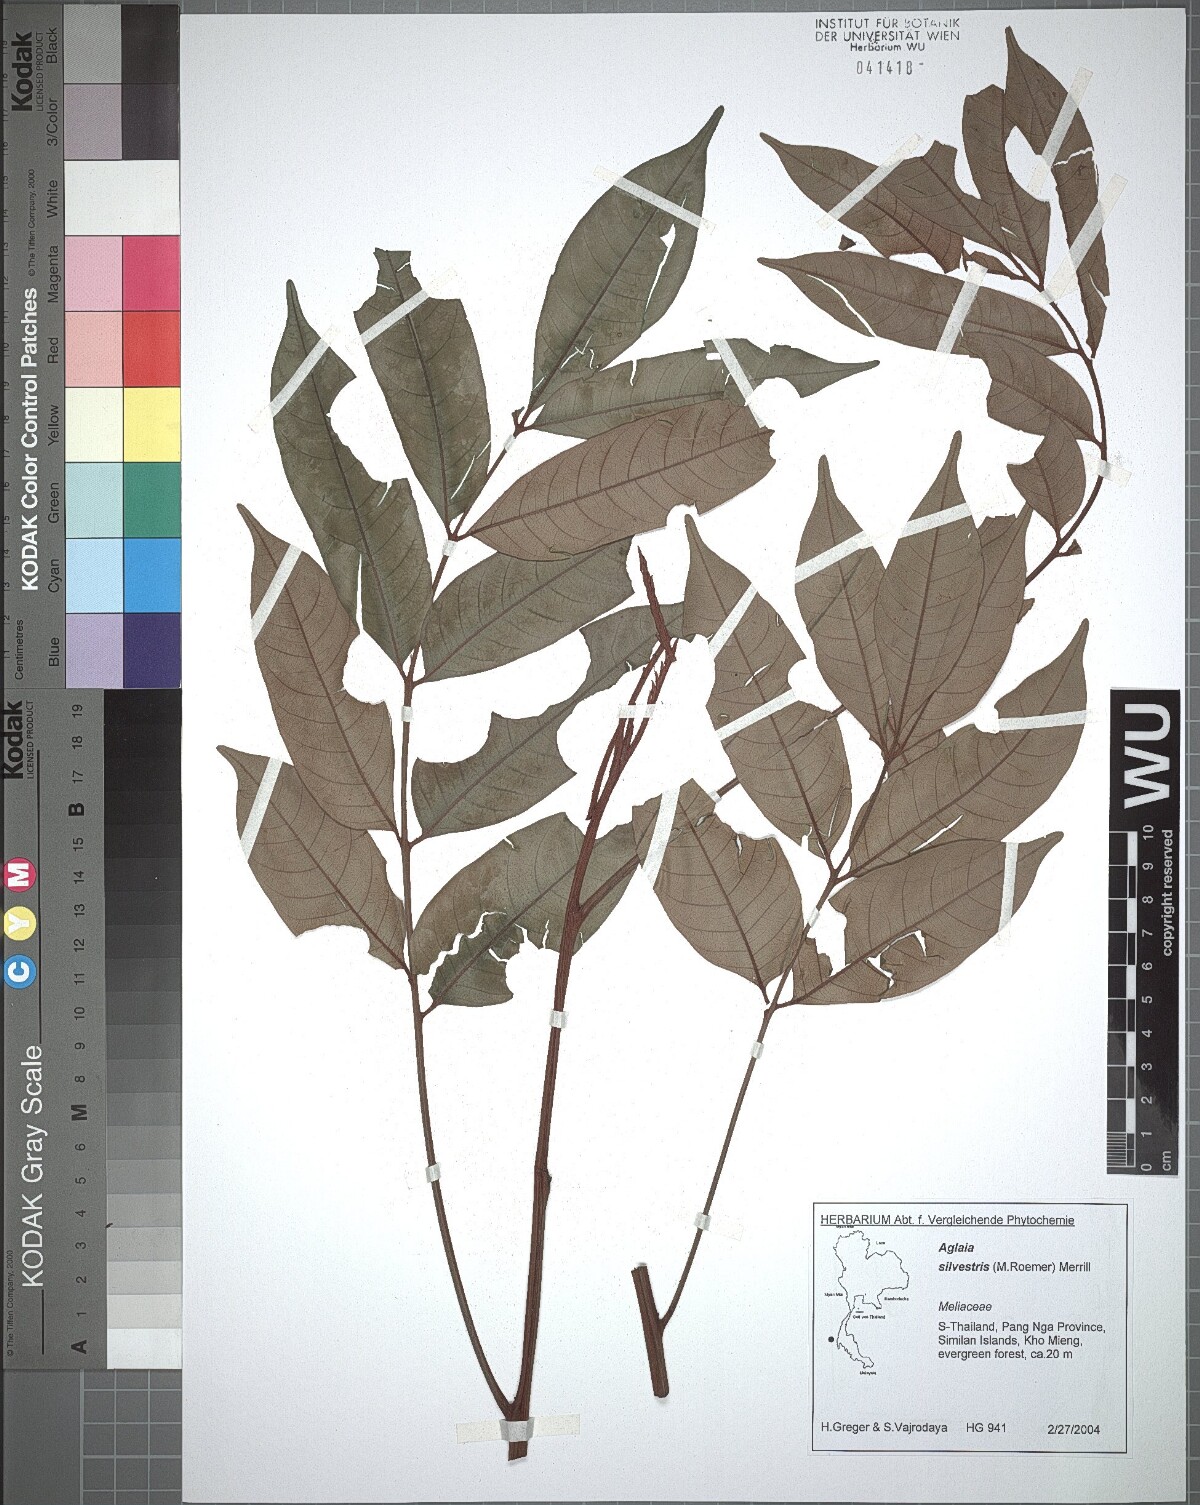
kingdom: Plantae
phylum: Tracheophyta
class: Magnoliopsida
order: Sapindales
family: Meliaceae
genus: Aglaia
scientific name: Aglaia silvestris
